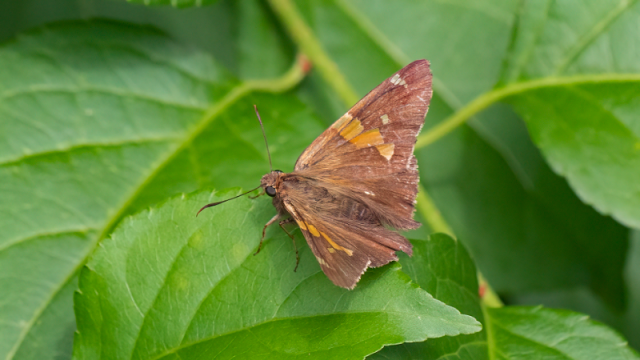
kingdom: Animalia
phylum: Arthropoda
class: Insecta
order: Lepidoptera
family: Hesperiidae
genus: Epargyreus
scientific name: Epargyreus clarus
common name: Silver-spotted Skipper
